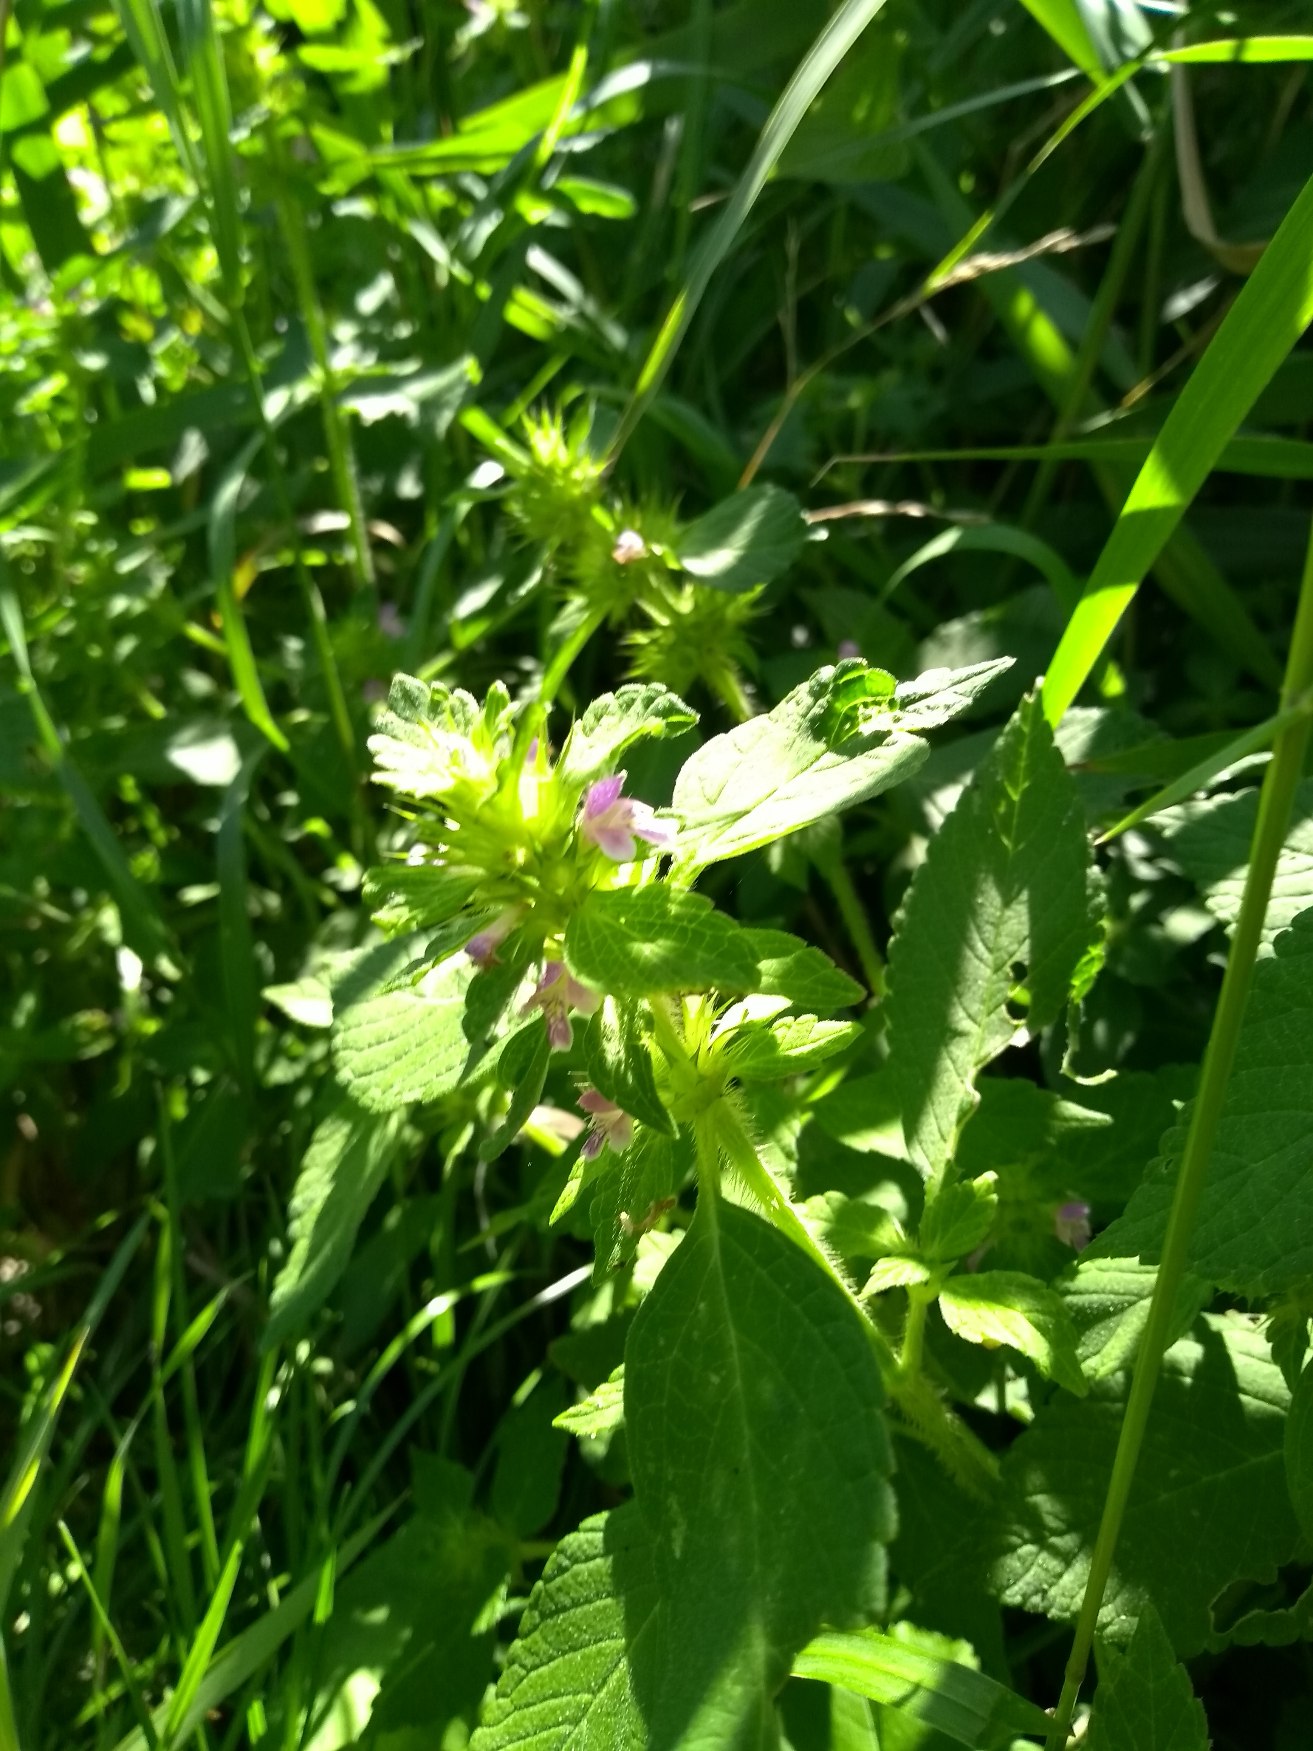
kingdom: Plantae
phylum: Tracheophyta
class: Magnoliopsida
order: Lamiales
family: Lamiaceae
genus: Galeopsis
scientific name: Galeopsis bifida
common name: Skov-hanekro
